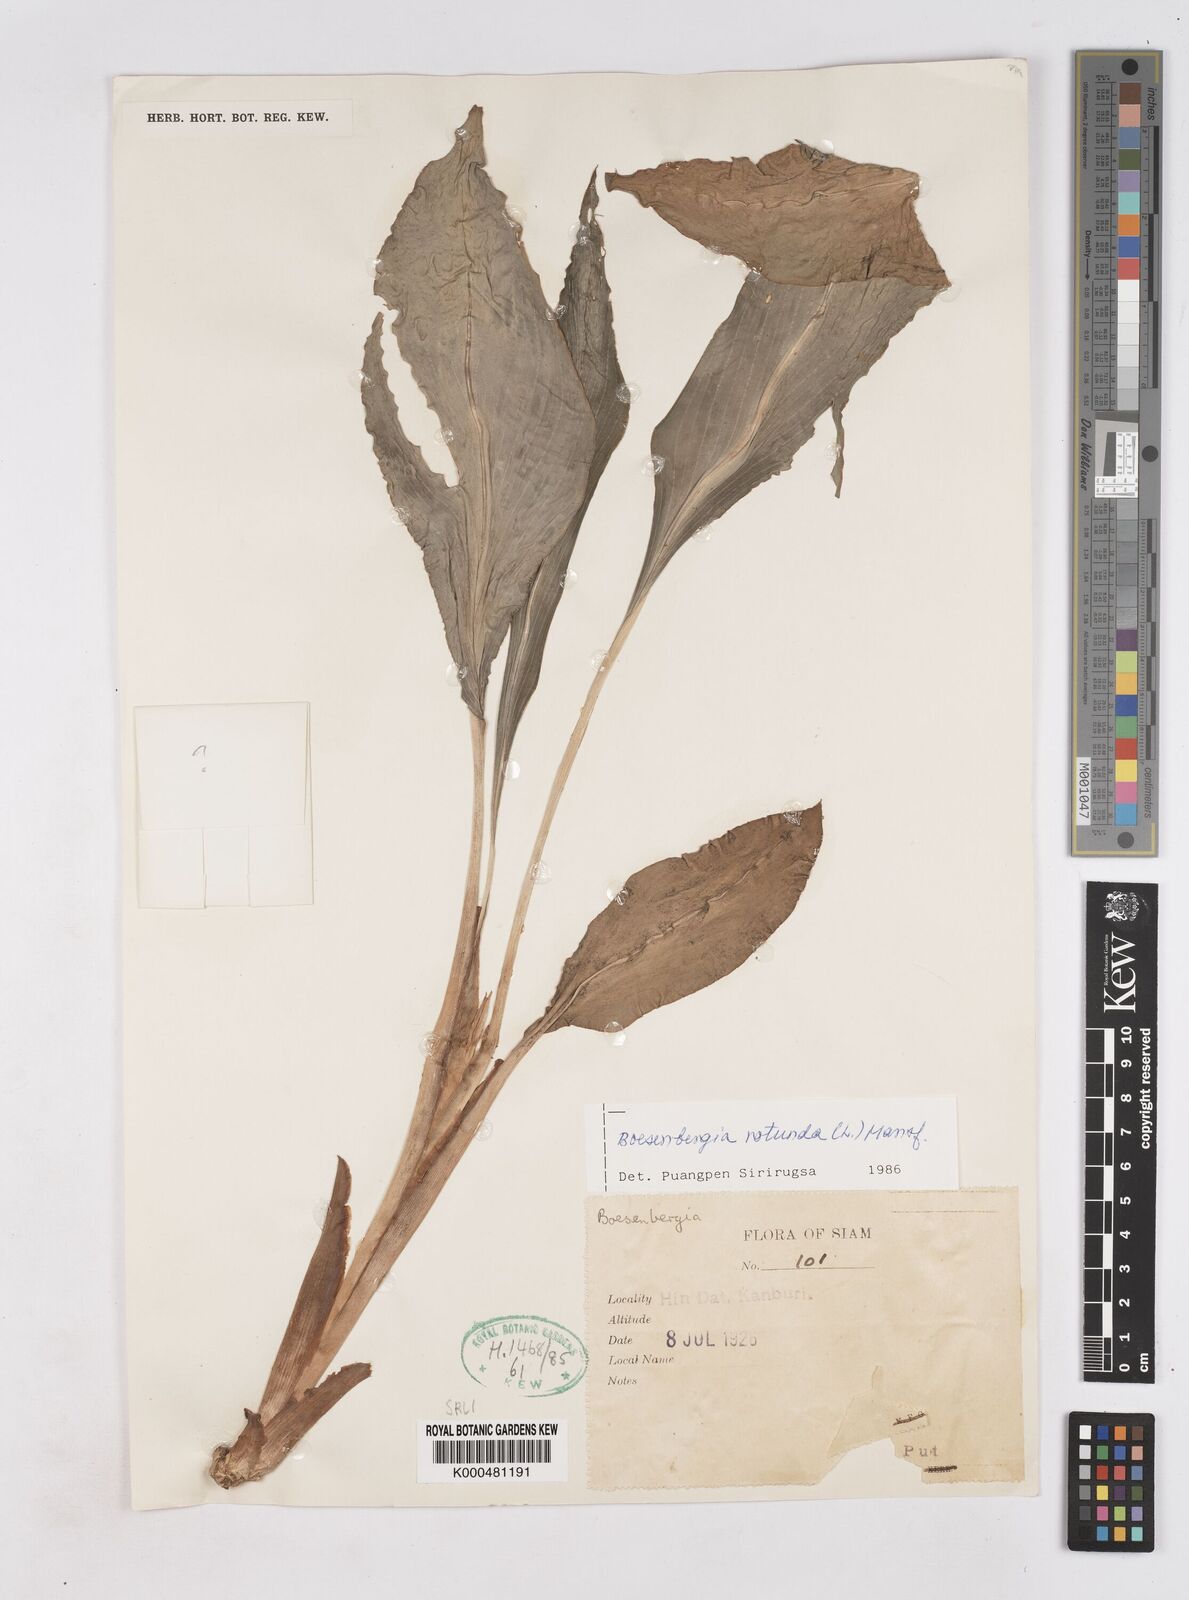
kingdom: Plantae
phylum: Tracheophyta
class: Liliopsida
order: Zingiberales
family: Zingiberaceae
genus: Boesenbergia
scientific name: Boesenbergia rotunda
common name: Chinese ginger
